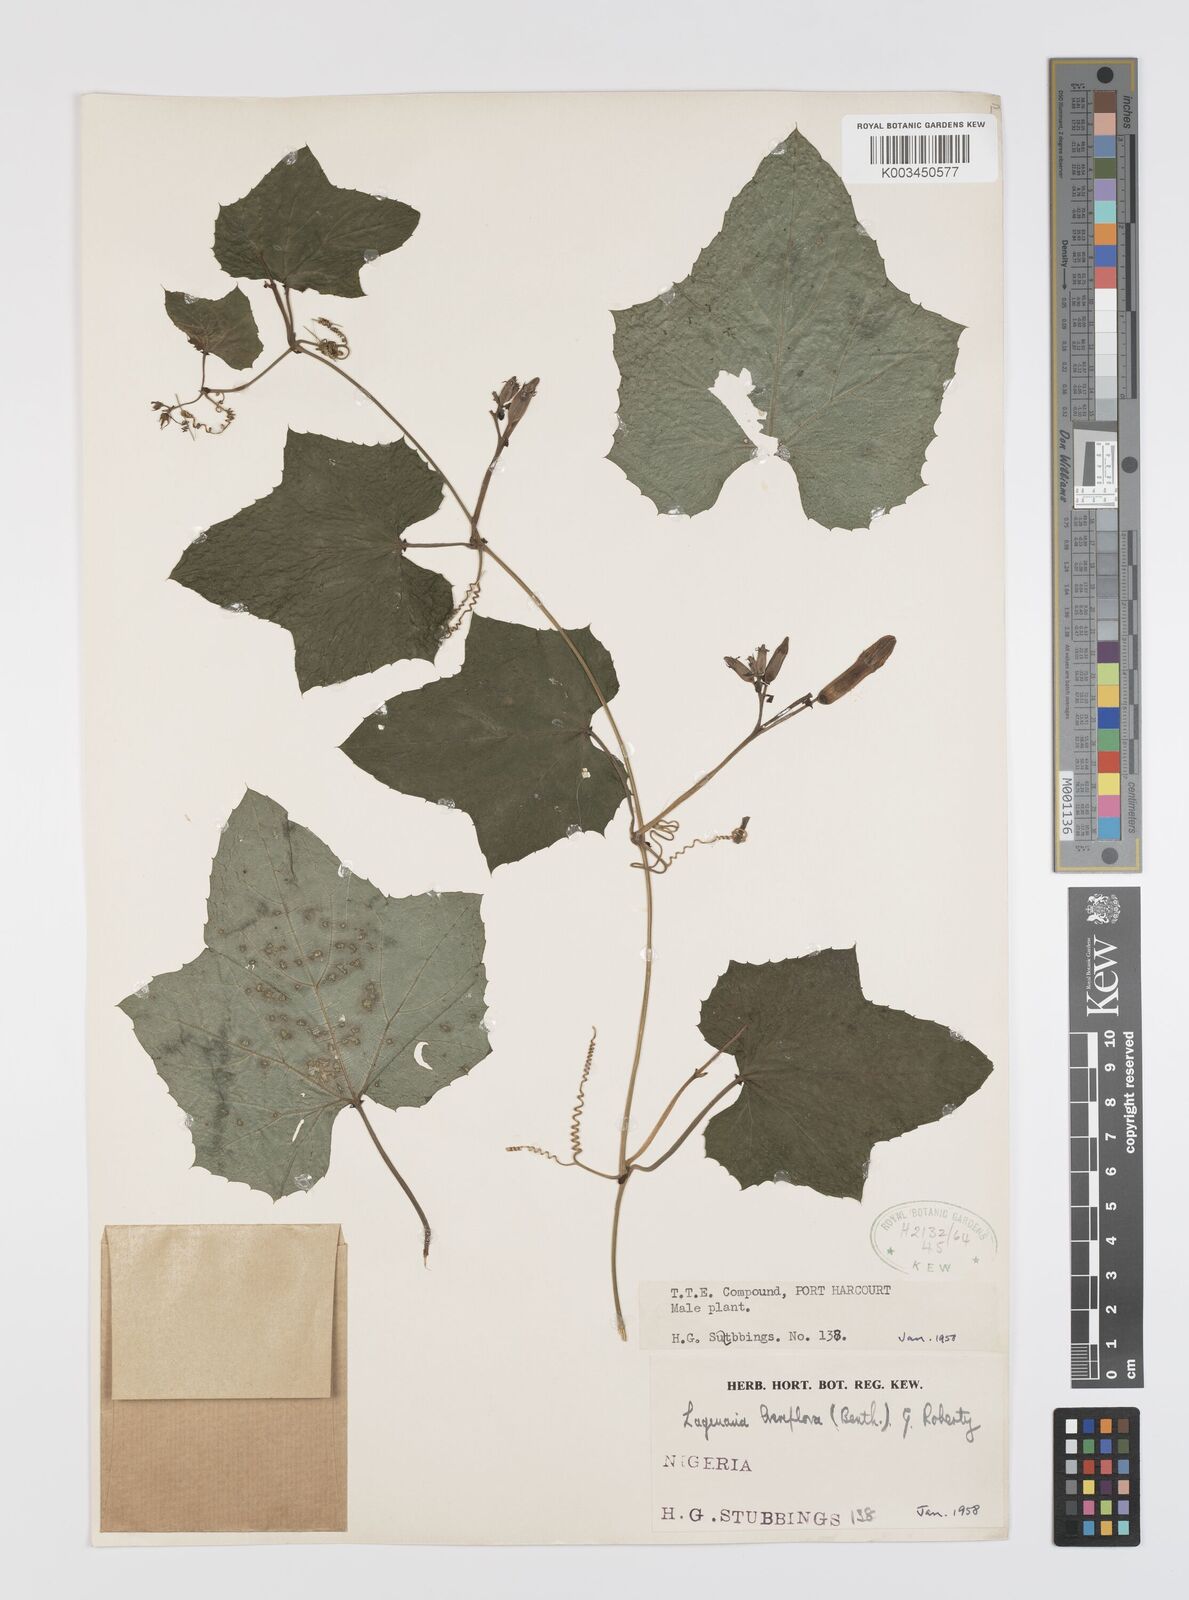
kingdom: Plantae
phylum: Tracheophyta
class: Magnoliopsida
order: Cucurbitales
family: Cucurbitaceae
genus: Lagenaria
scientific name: Lagenaria breviflora
